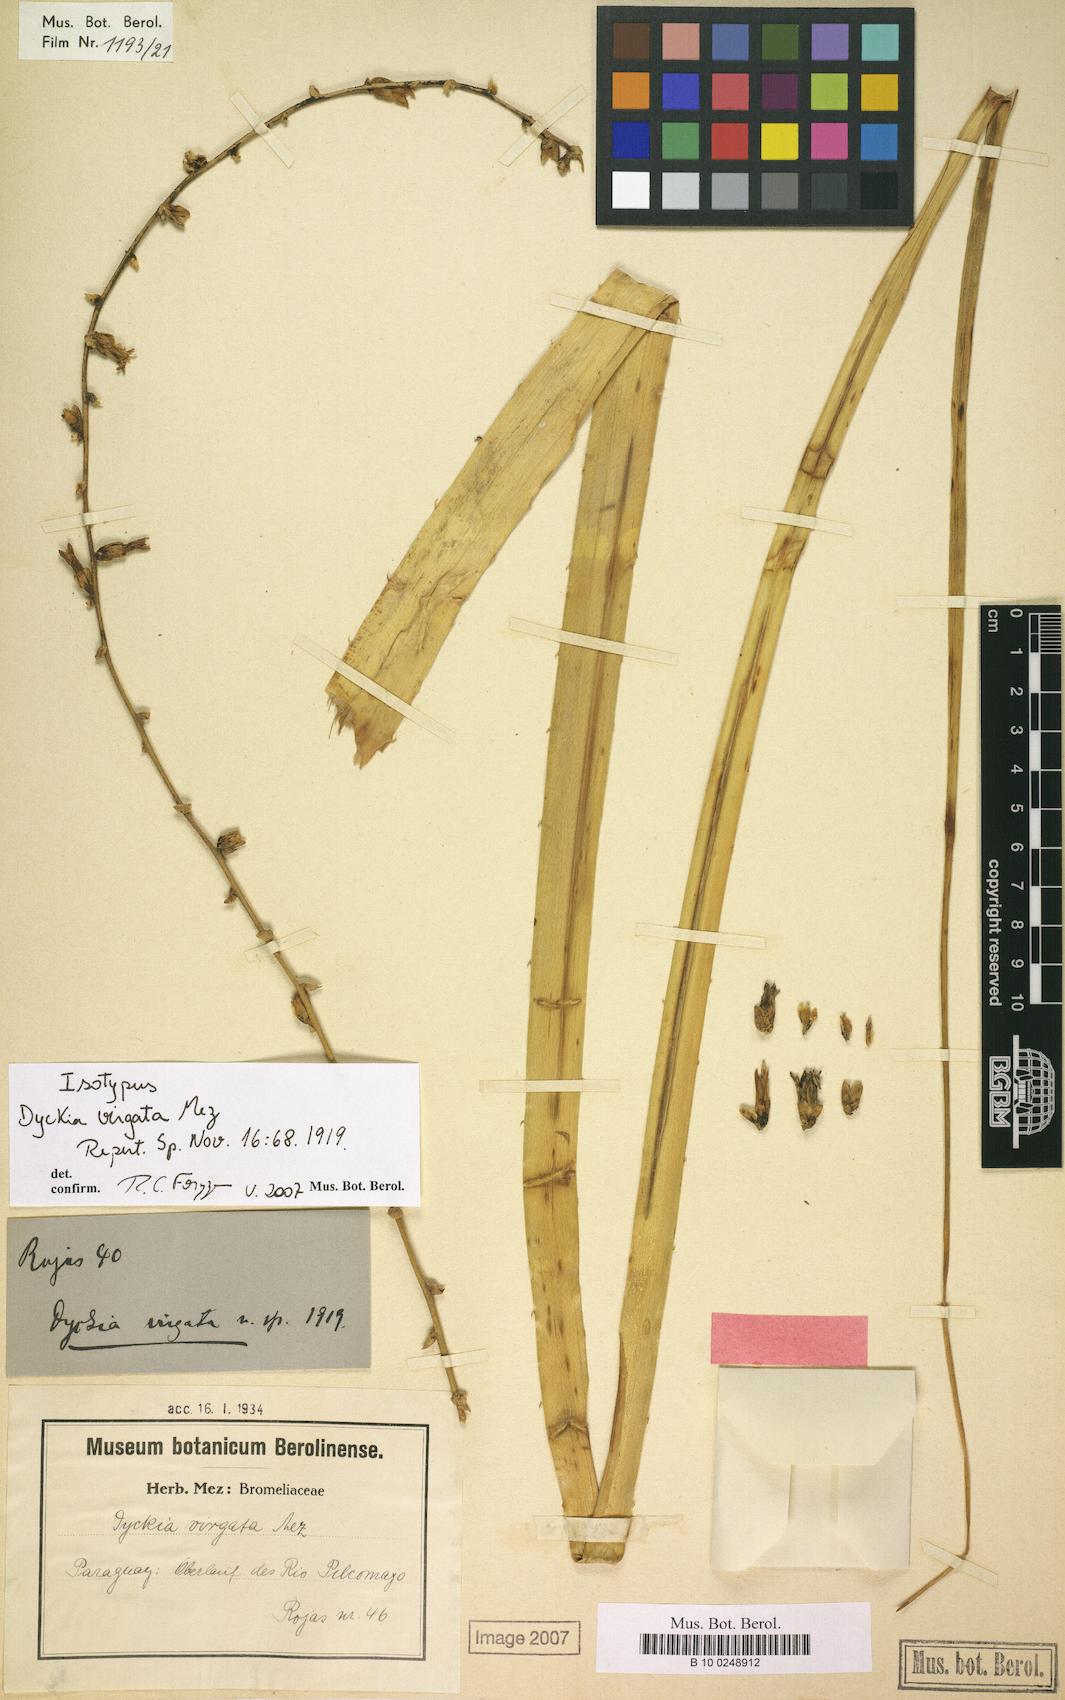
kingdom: Plantae
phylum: Tracheophyta
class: Liliopsida
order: Poales
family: Bromeliaceae
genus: Dyckia
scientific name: Dyckia virgata
